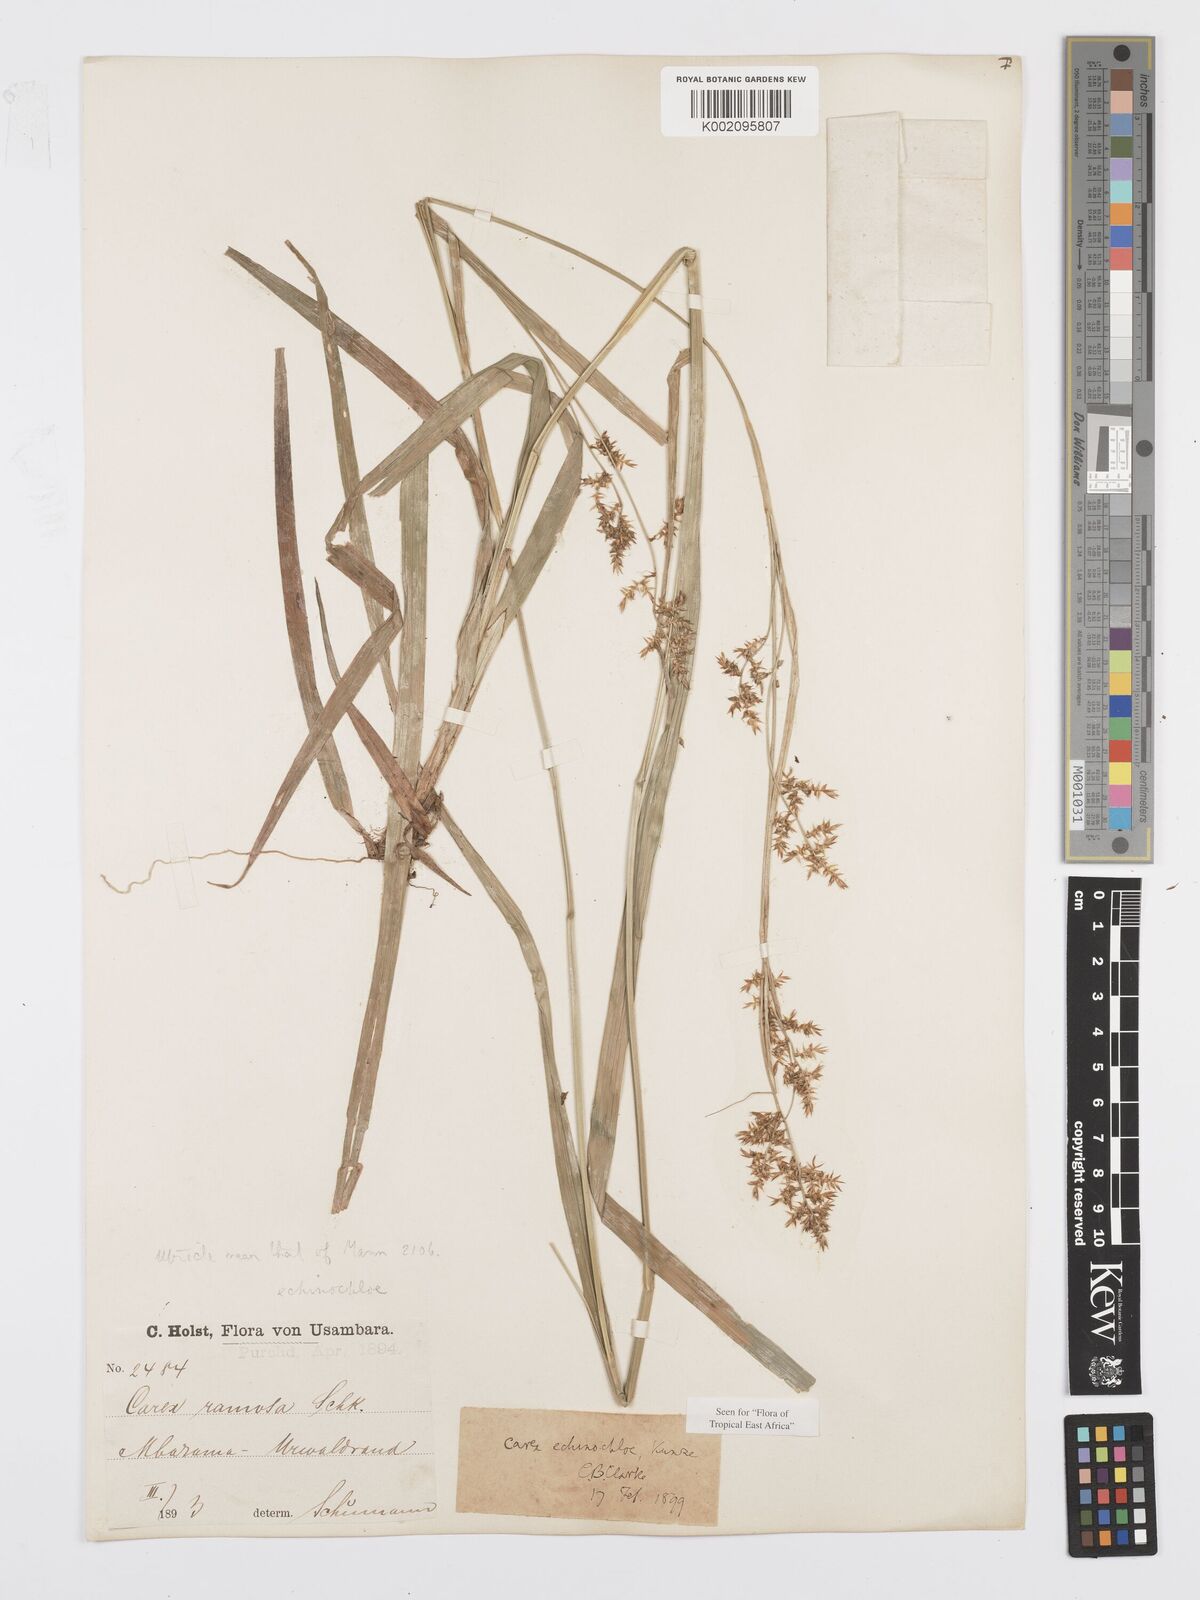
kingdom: Plantae
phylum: Tracheophyta
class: Liliopsida
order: Poales
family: Cyperaceae
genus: Carex
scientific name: Carex echinochloe
